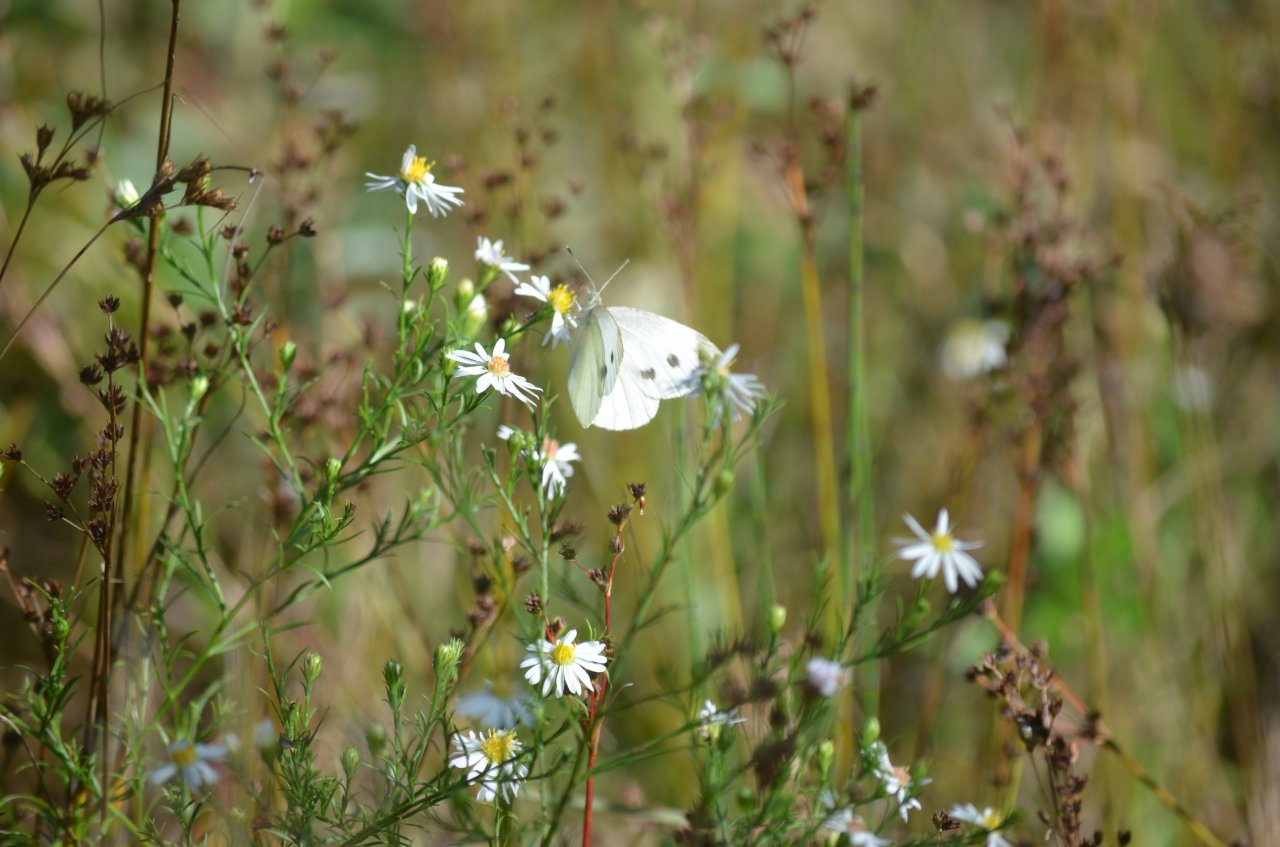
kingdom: Animalia
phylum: Arthropoda
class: Insecta
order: Lepidoptera
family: Pieridae
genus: Pieris
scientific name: Pieris rapae
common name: Cabbage White
